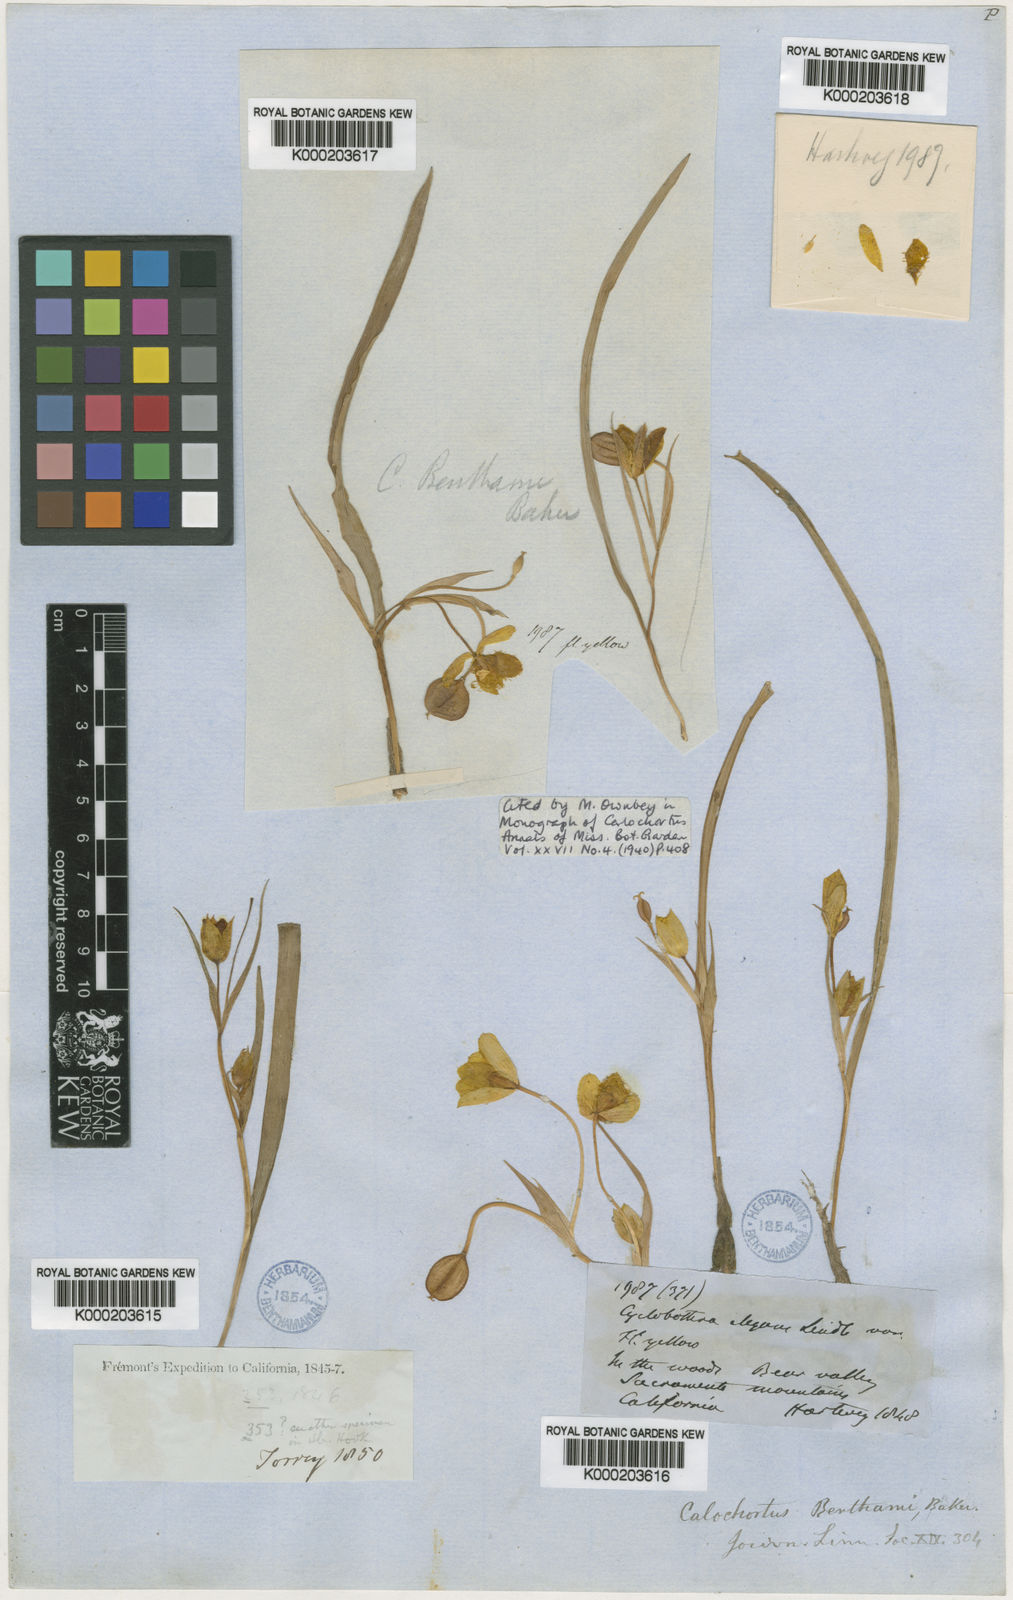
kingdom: Plantae
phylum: Tracheophyta
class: Liliopsida
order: Liliales
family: Liliaceae
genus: Calochortus
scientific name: Calochortus monophyllus
